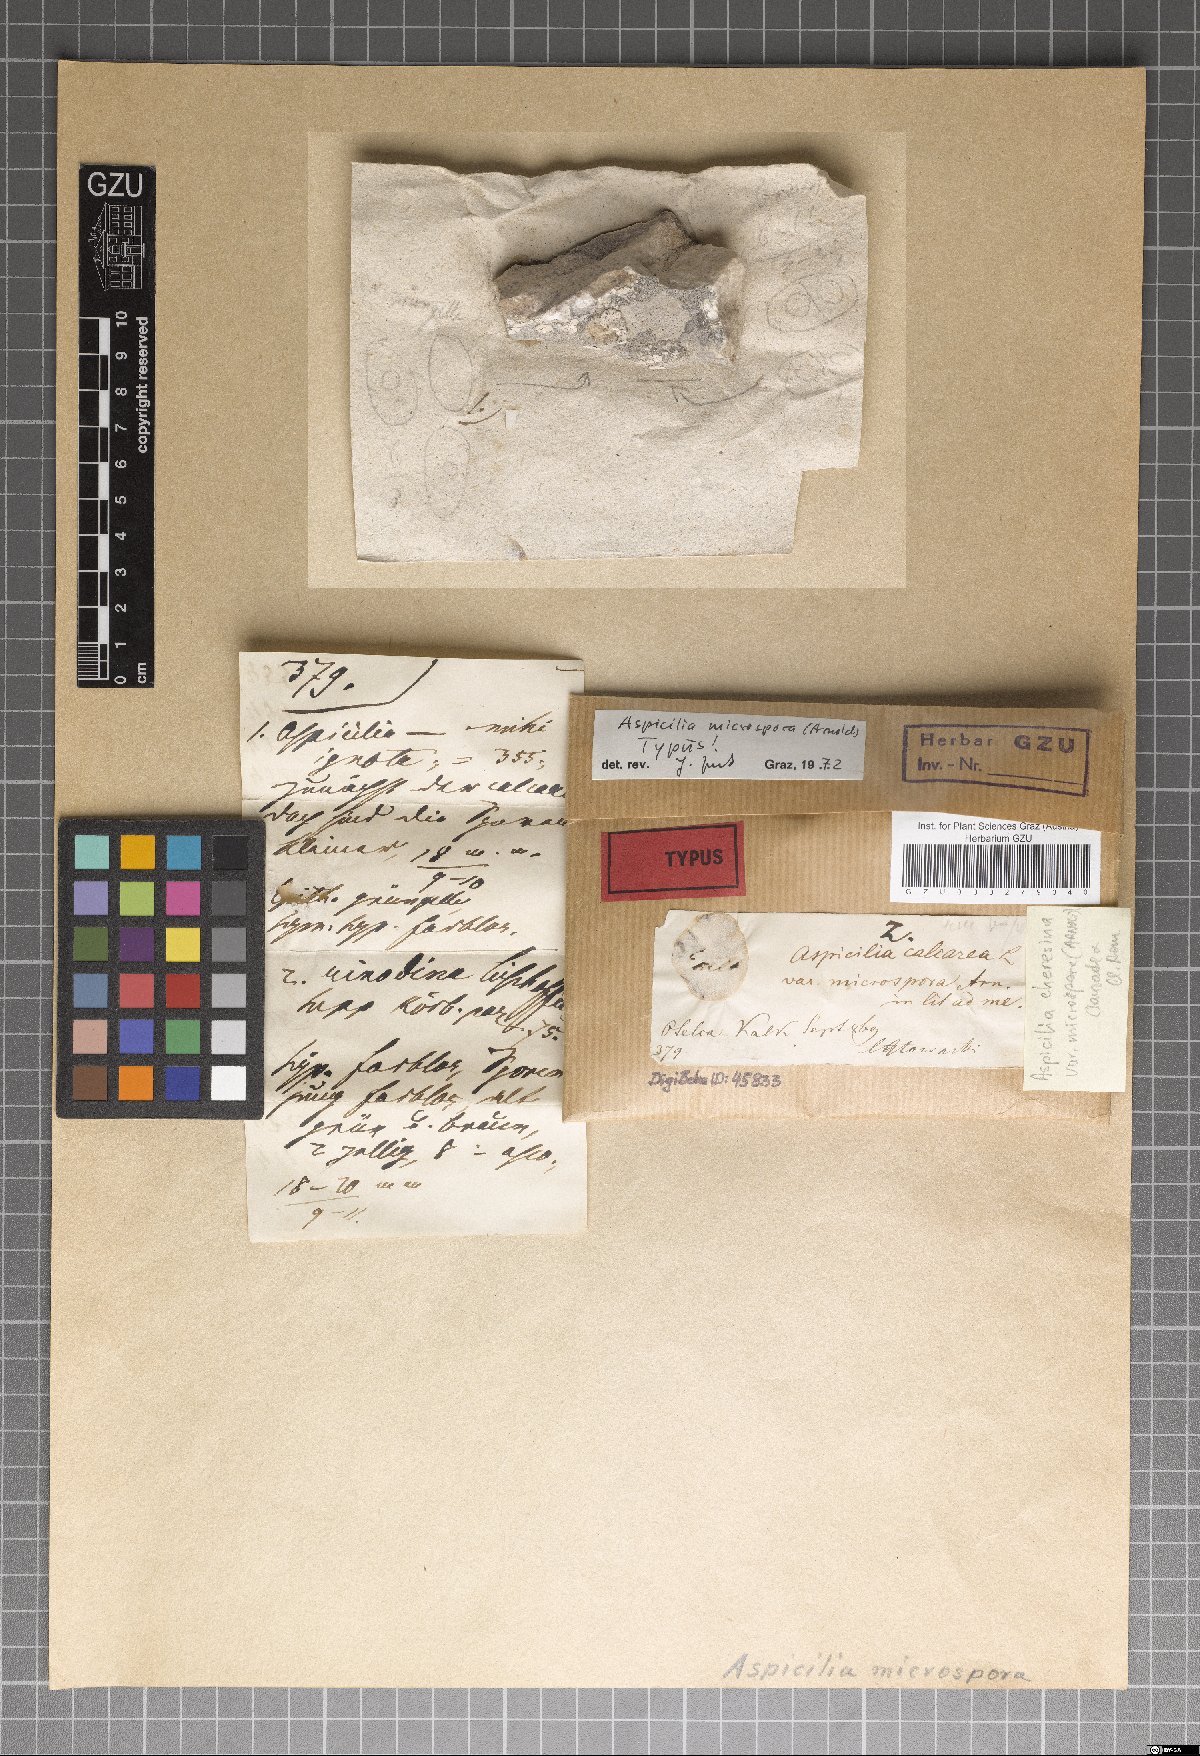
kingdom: Fungi
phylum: Ascomycota
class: Lecanoromycetes
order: Pertusariales
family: Megasporaceae
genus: Lobothallia
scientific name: Lobothallia cheresina
